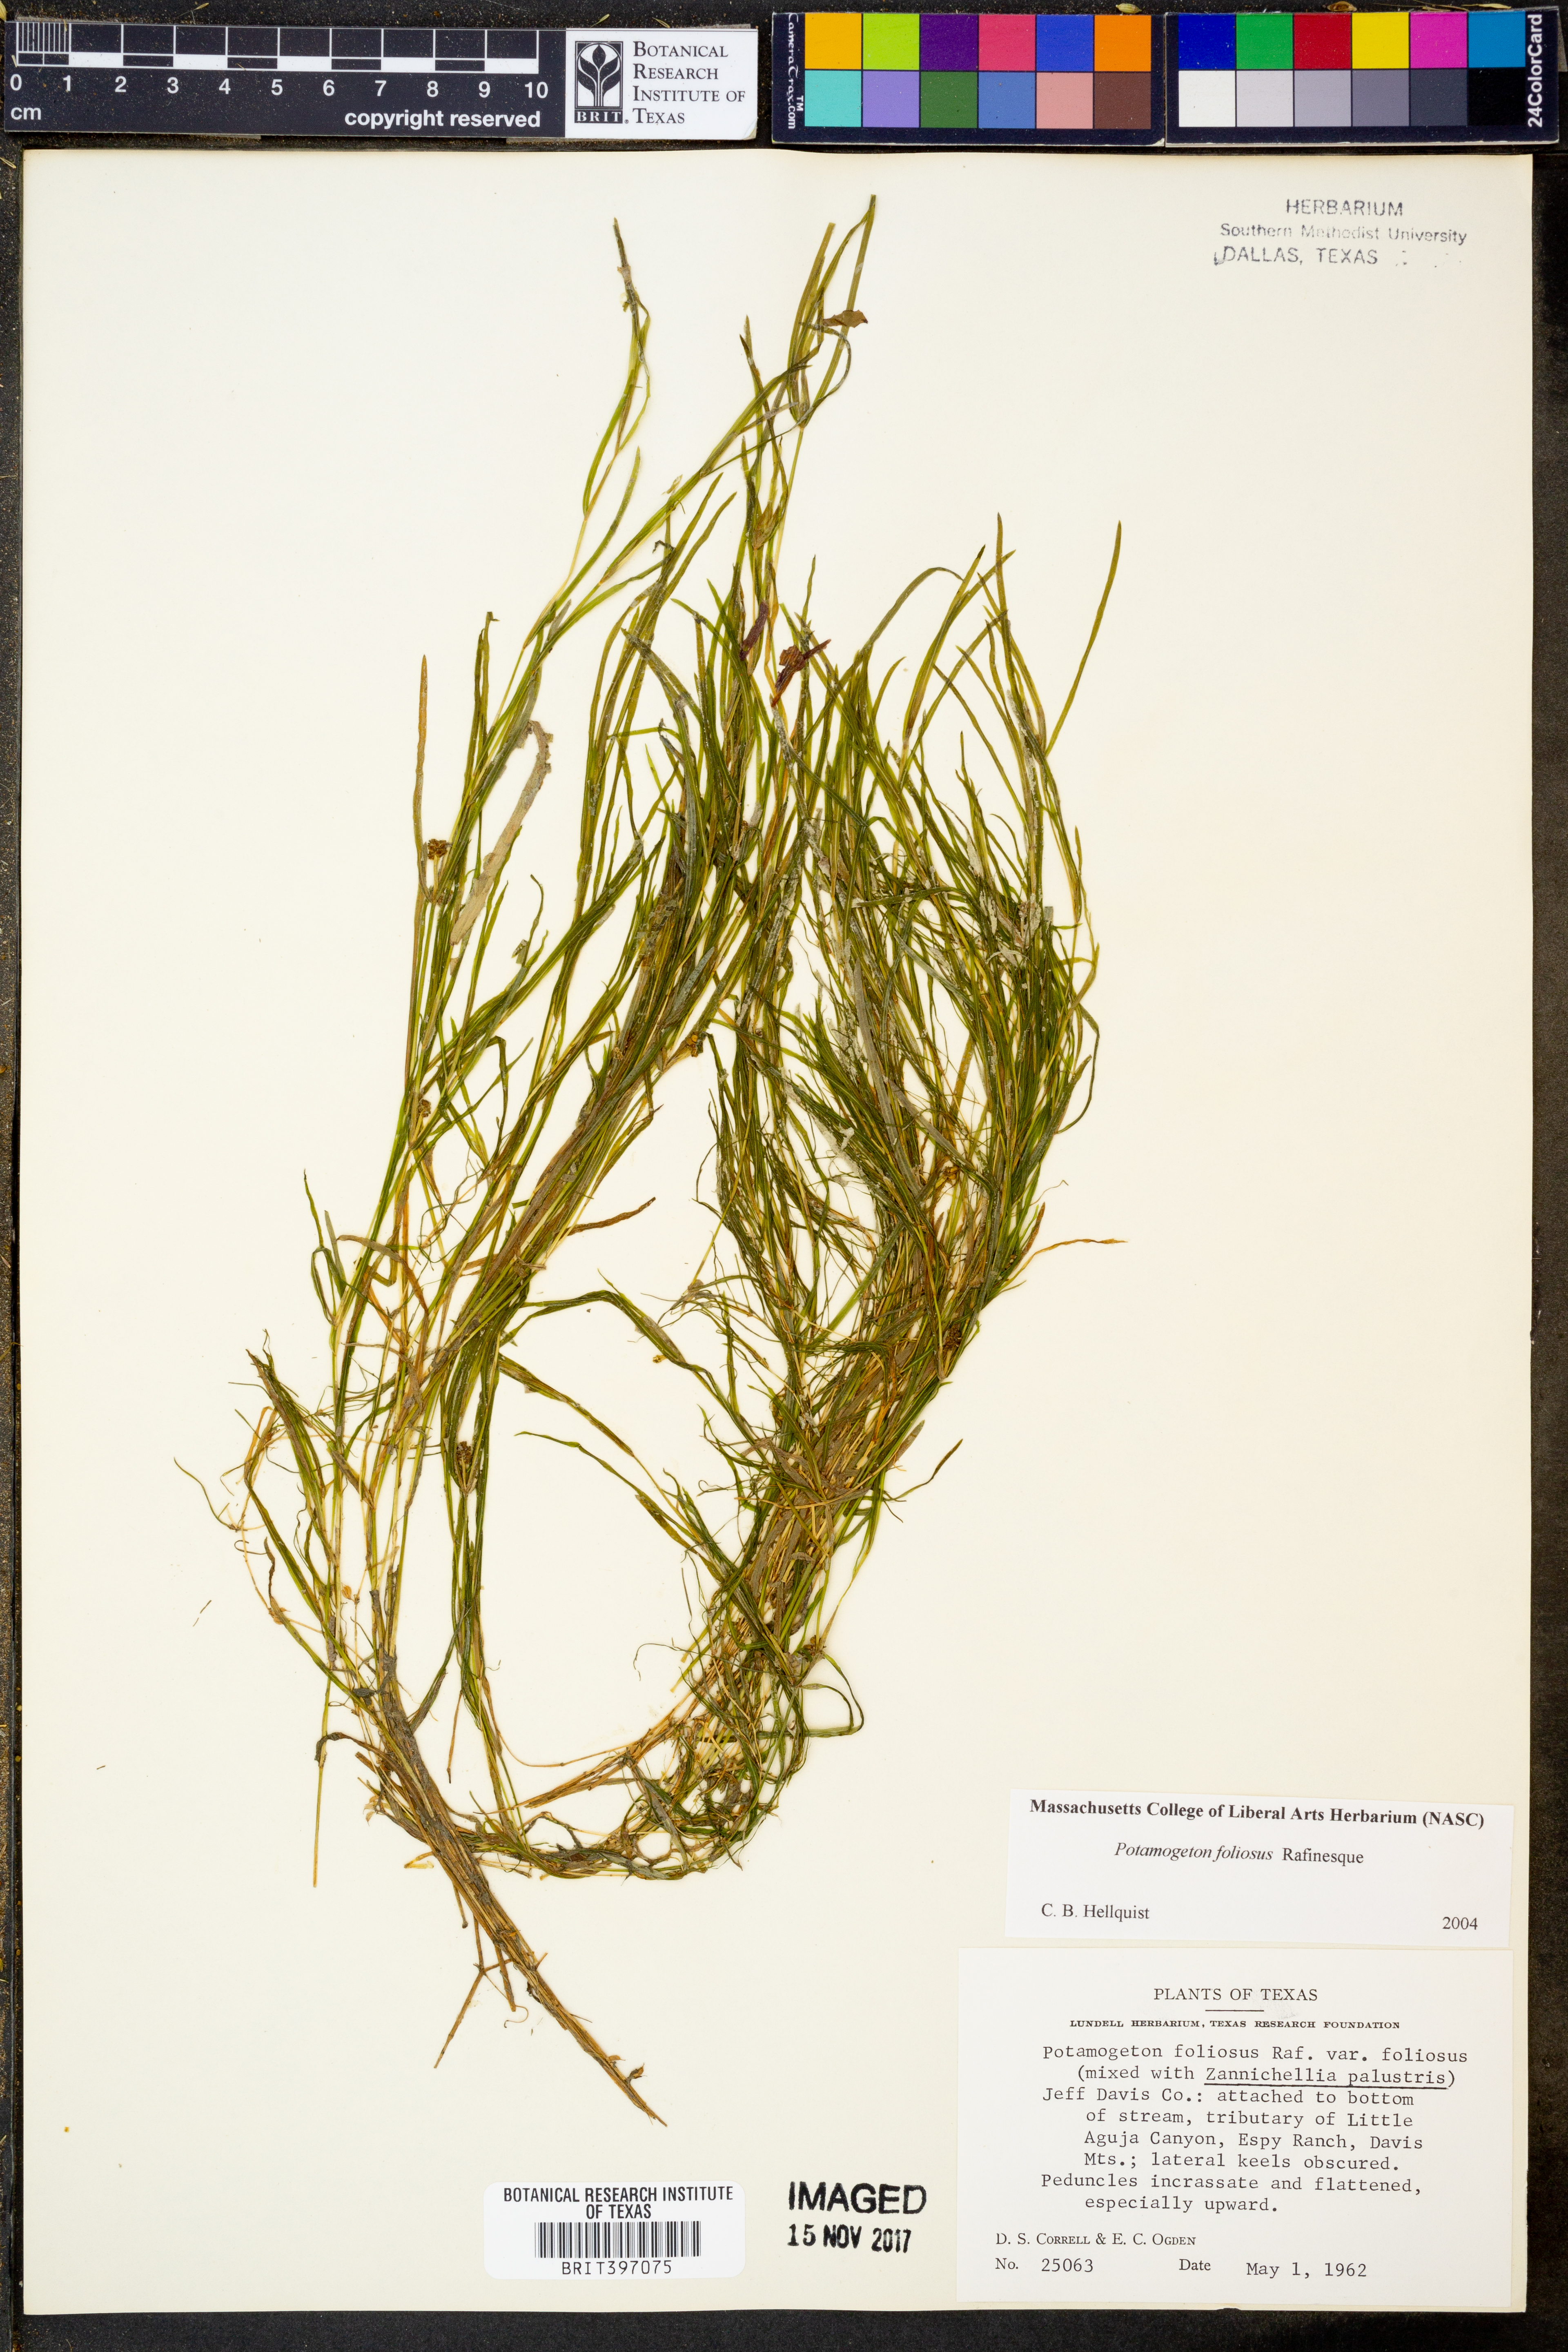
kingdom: Plantae
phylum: Tracheophyta
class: Liliopsida
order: Alismatales
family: Potamogetonaceae
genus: Potamogeton
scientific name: Potamogeton foliosus
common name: Leafy pondweed
